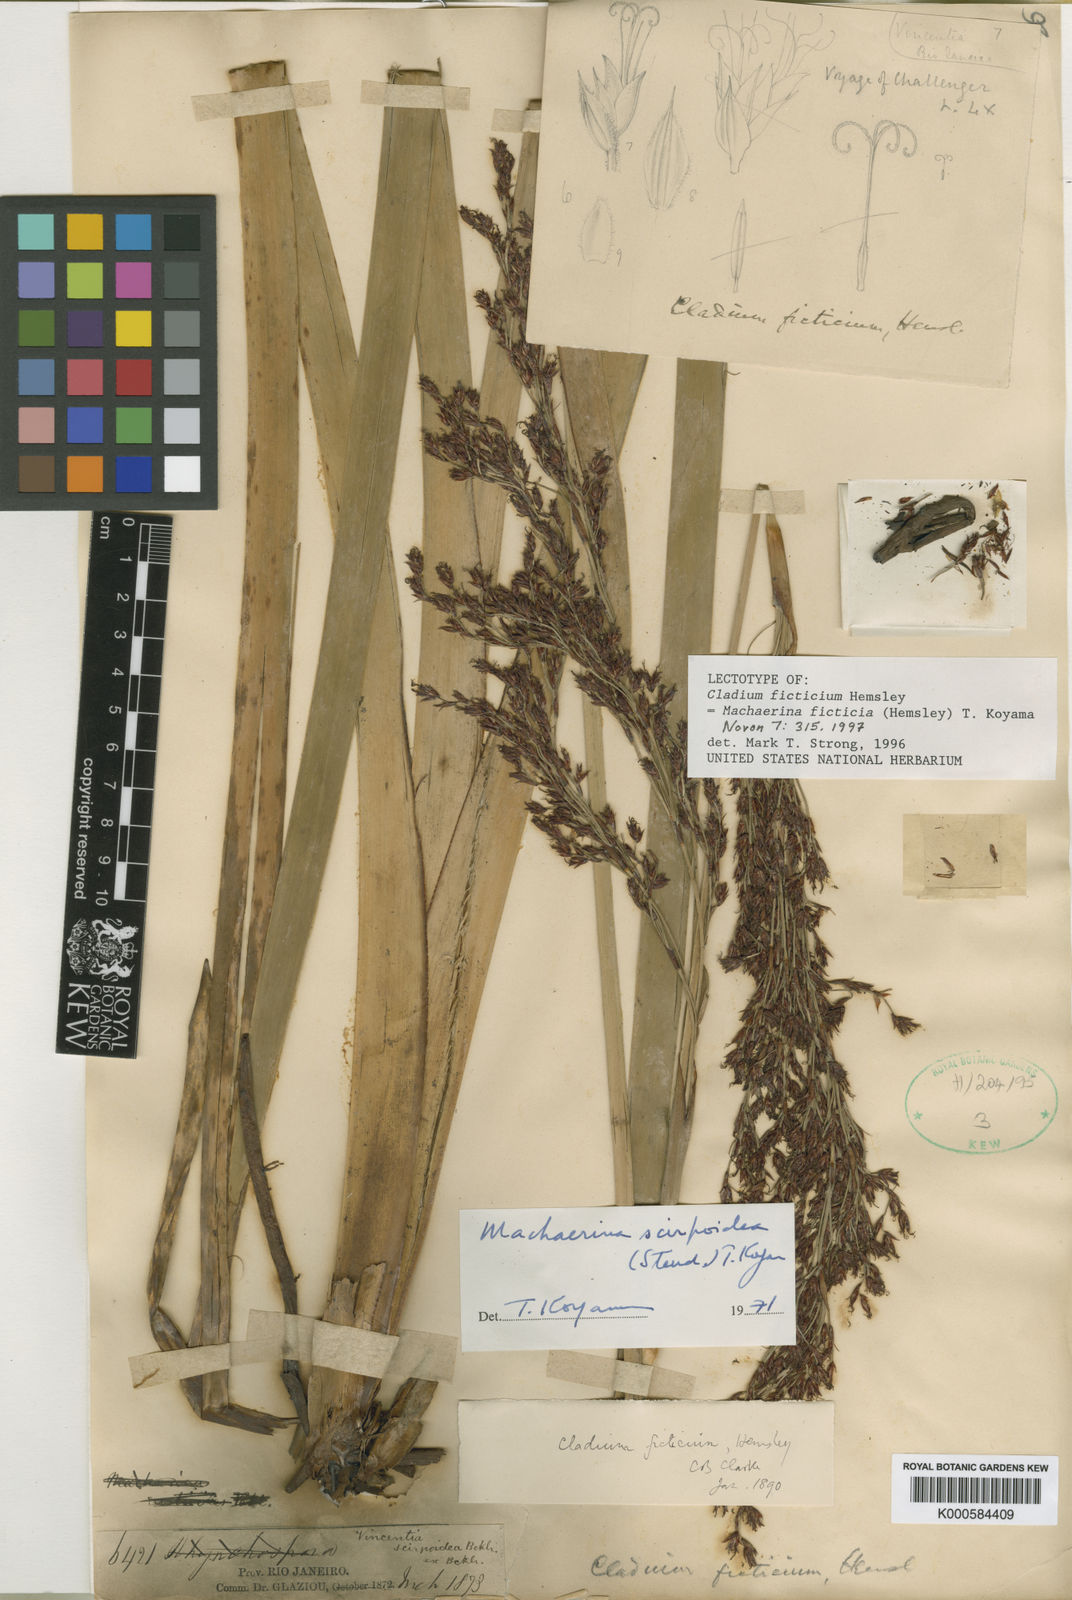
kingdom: Plantae
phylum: Tracheophyta
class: Liliopsida
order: Poales
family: Cyperaceae
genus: Machaerina
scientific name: Machaerina ficticia
